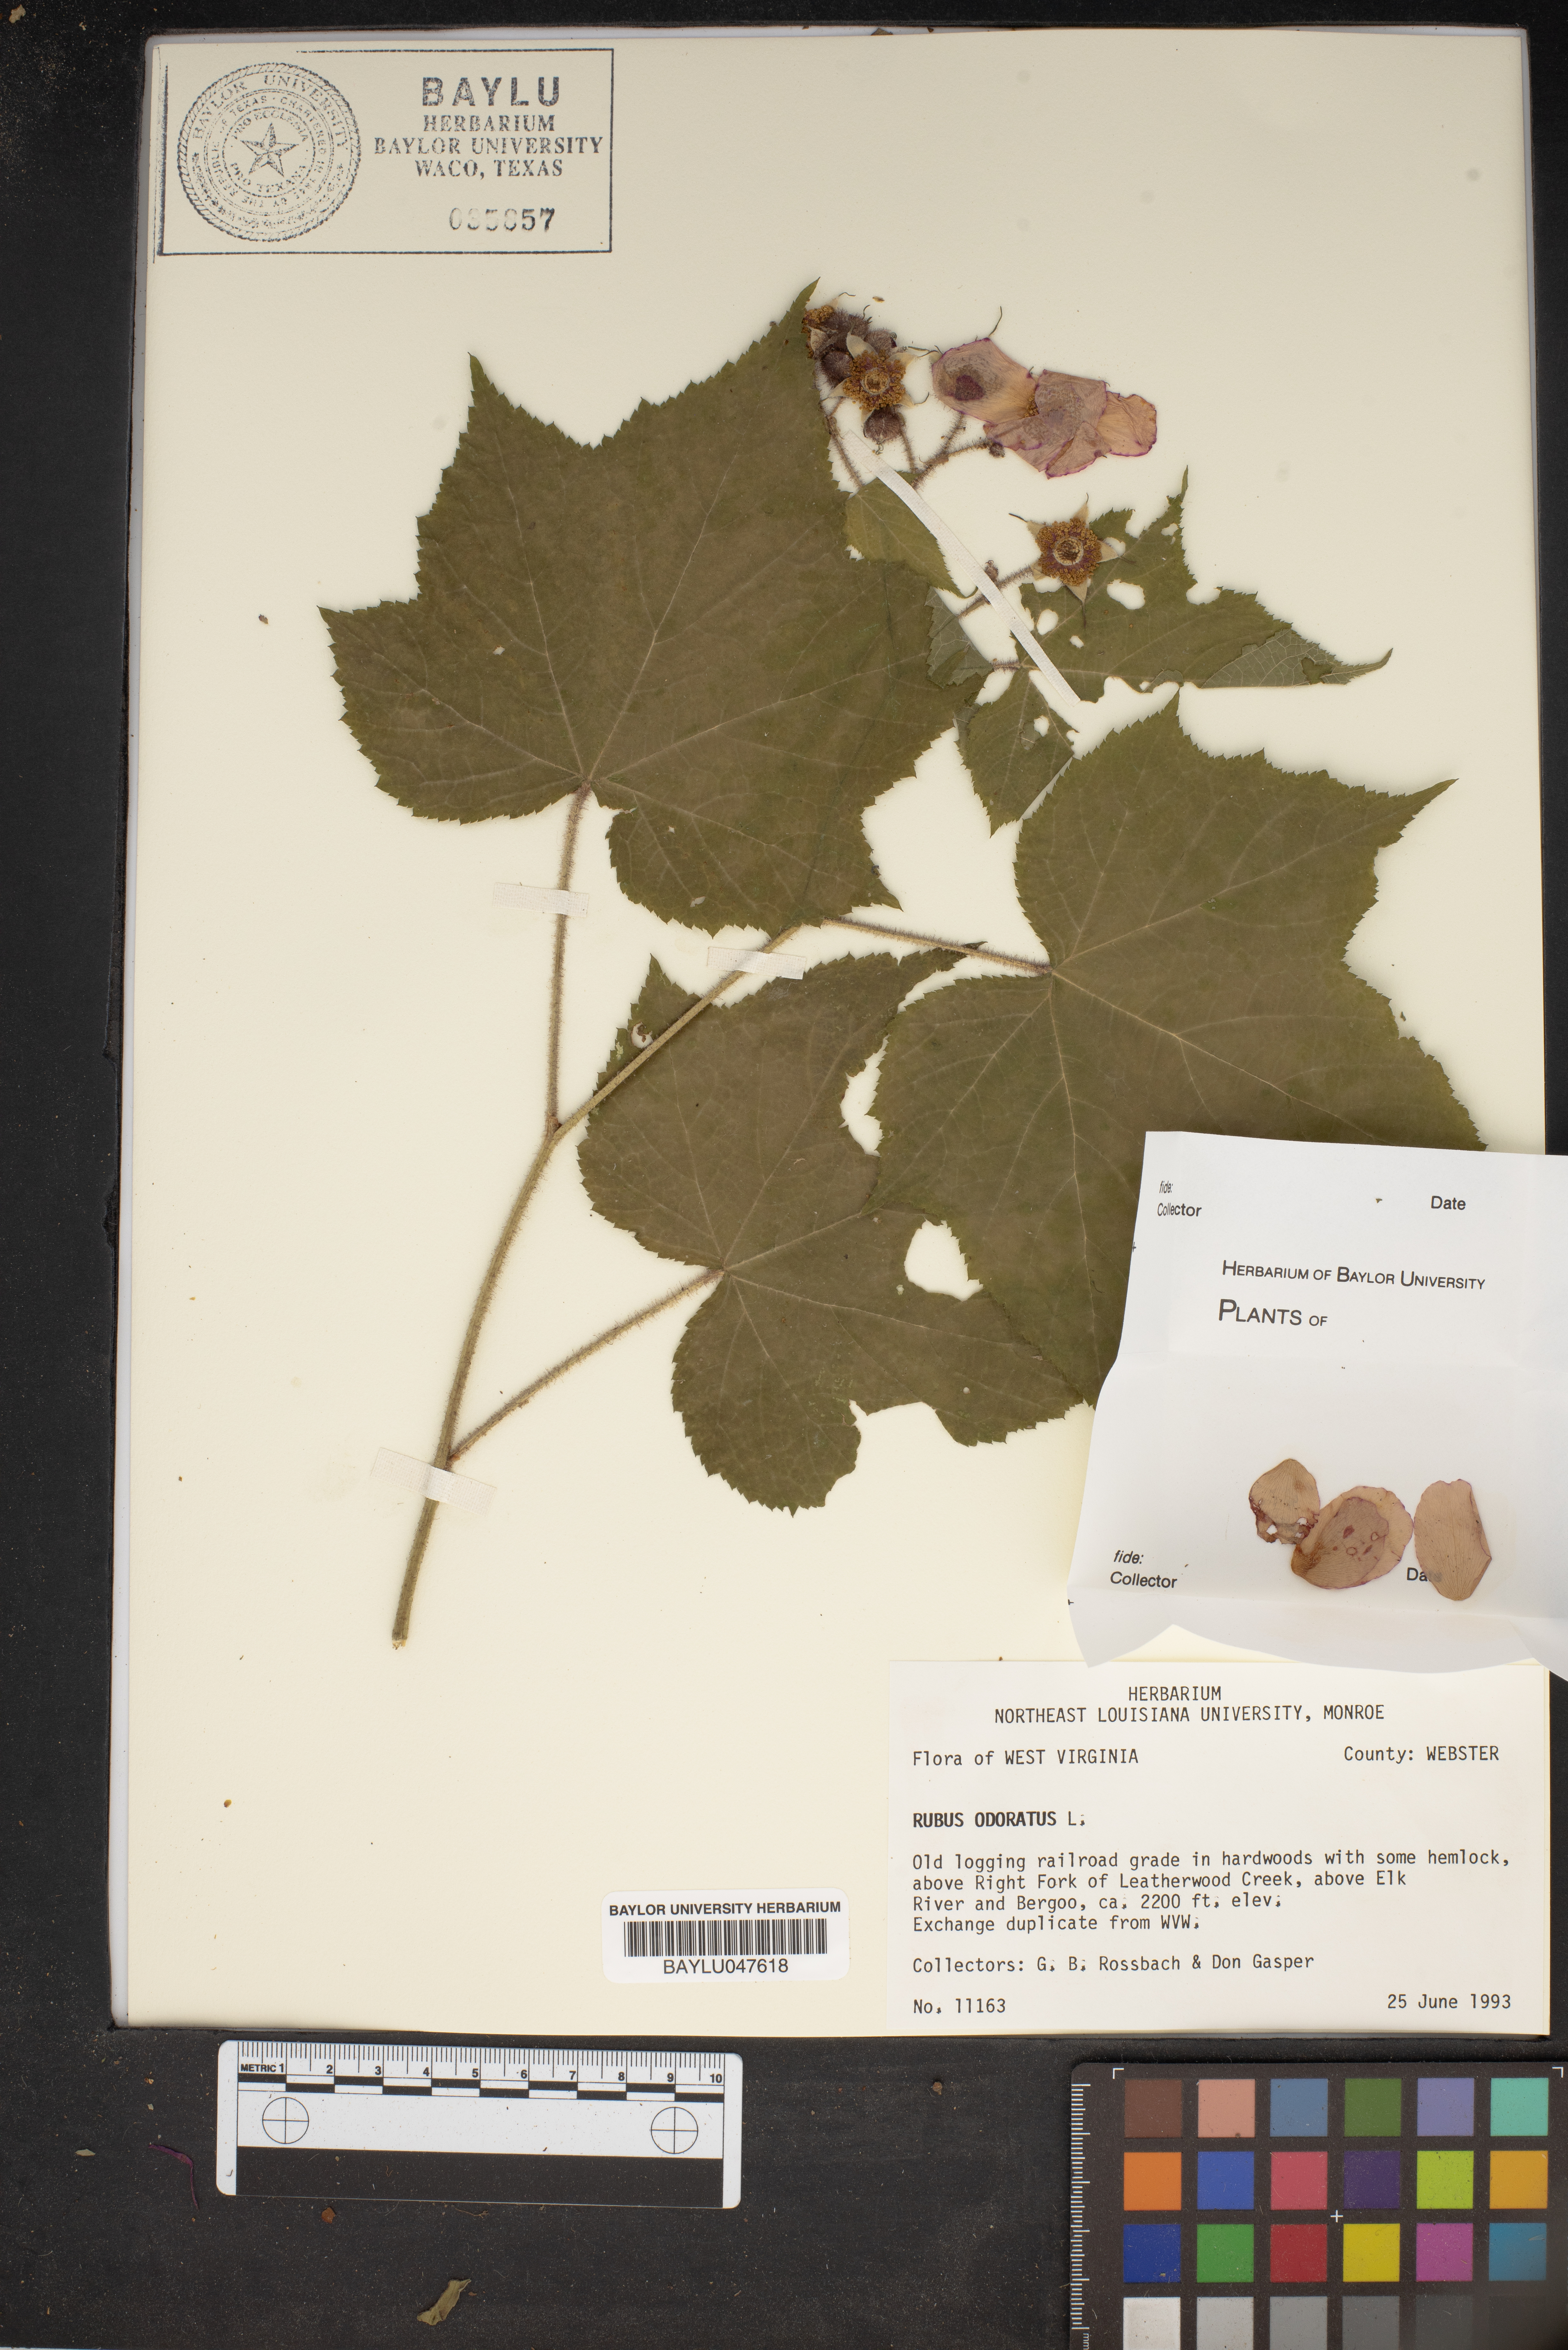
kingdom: Plantae
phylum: Tracheophyta
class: Magnoliopsida
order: Rosales
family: Rosaceae
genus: Rubus
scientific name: Rubus odoratus
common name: Purple-flowered raspberry
